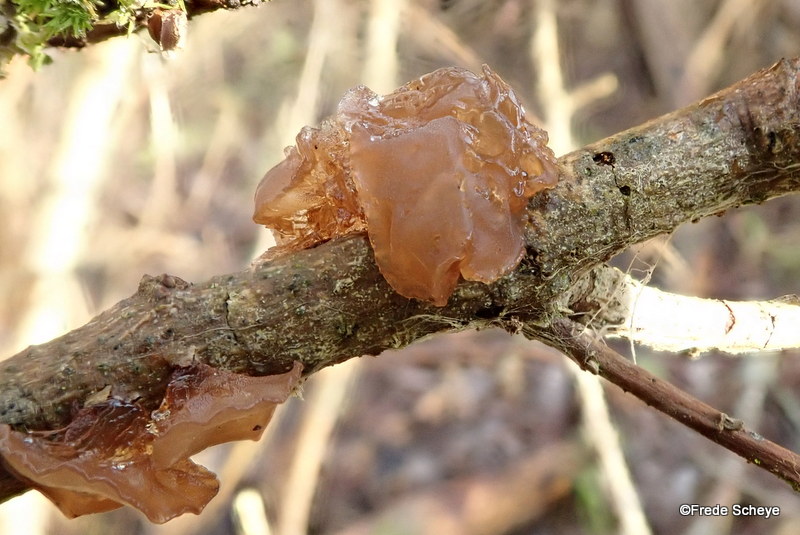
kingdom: Fungi
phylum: Basidiomycota
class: Agaricomycetes
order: Auriculariales
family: Auriculariaceae
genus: Exidia
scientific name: Exidia recisa
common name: pile-bævretop
